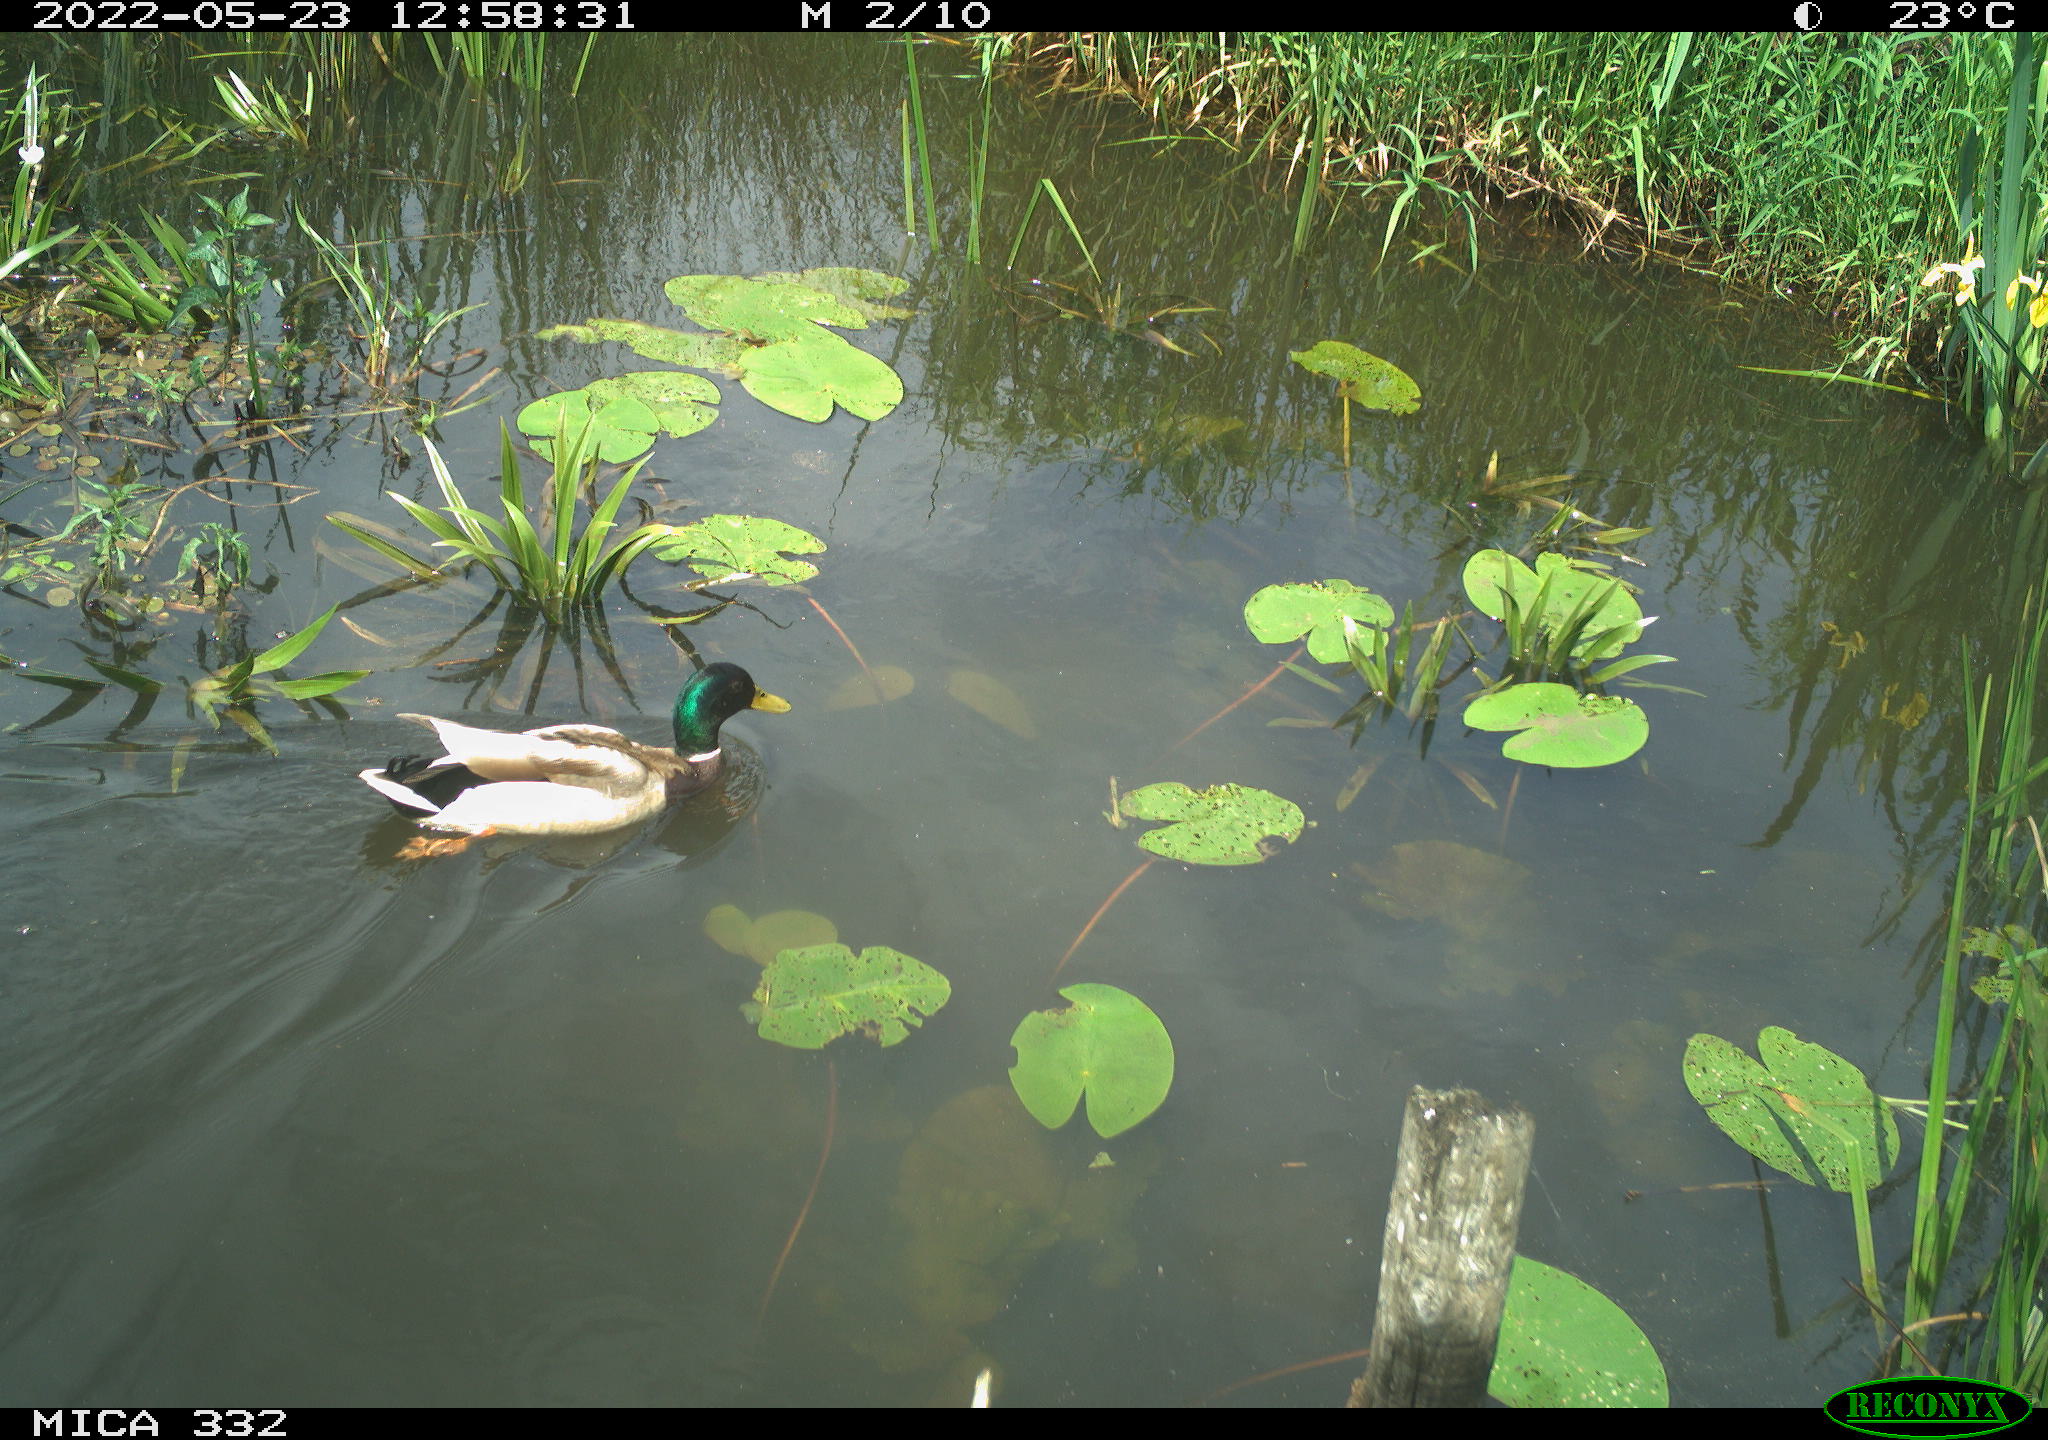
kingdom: Animalia
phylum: Chordata
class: Aves
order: Anseriformes
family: Anatidae
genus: Anas
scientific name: Anas platyrhynchos
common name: Mallard
